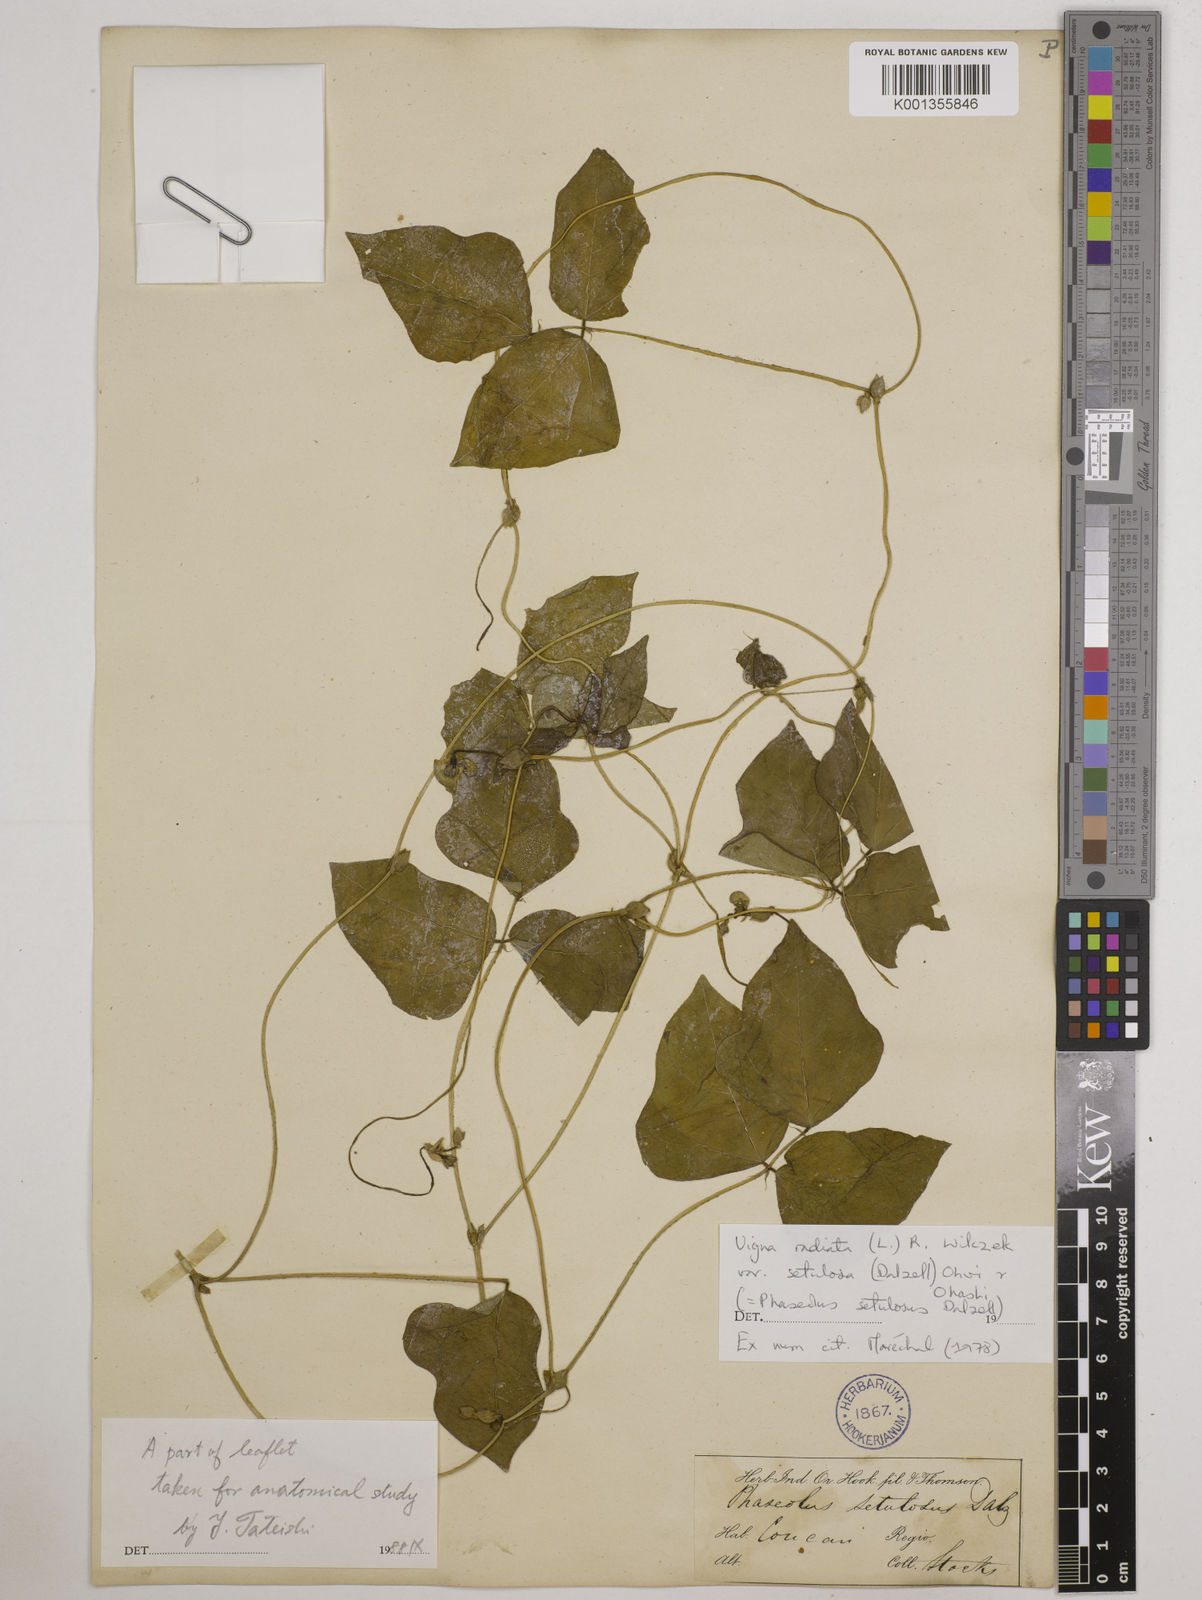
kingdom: Plantae
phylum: Tracheophyta
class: Magnoliopsida
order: Fabales
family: Fabaceae
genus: Vigna
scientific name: Vigna radiata
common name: Mung-bean
